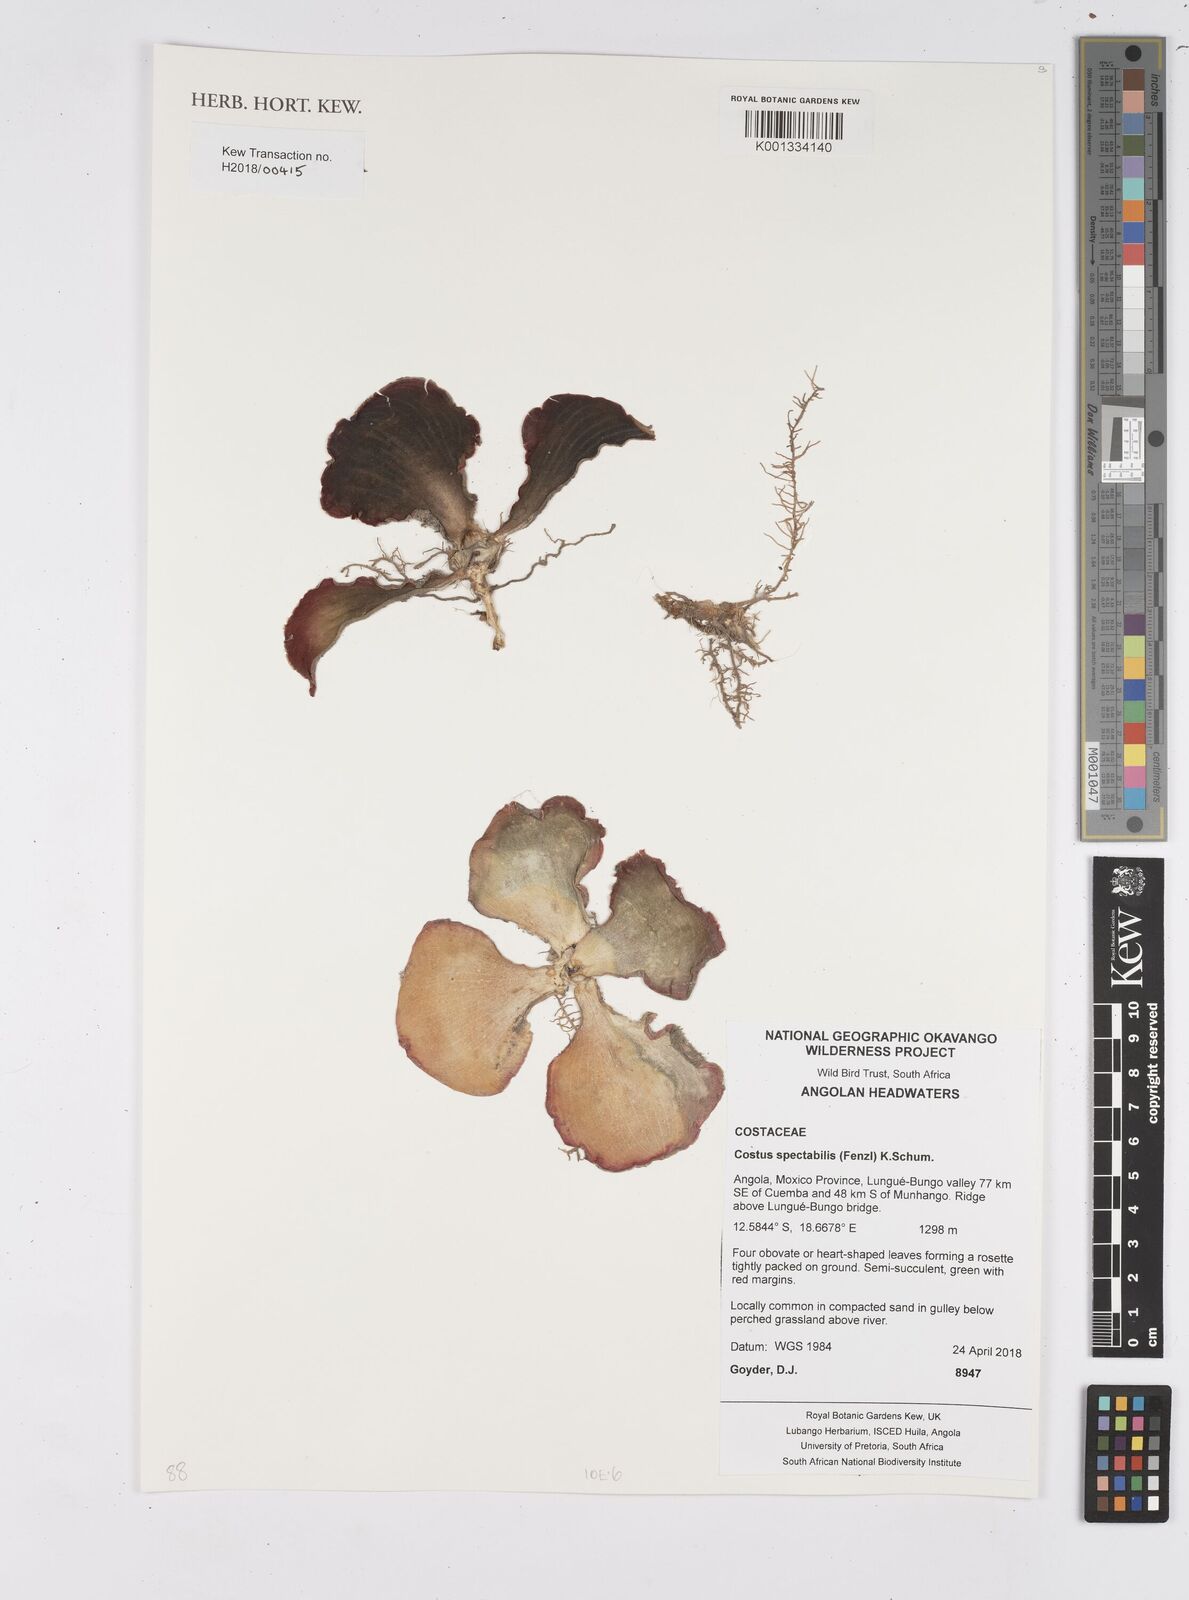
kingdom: Plantae
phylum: Tracheophyta
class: Liliopsida
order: Zingiberales
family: Costaceae
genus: Costus
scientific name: Costus spectabilis
